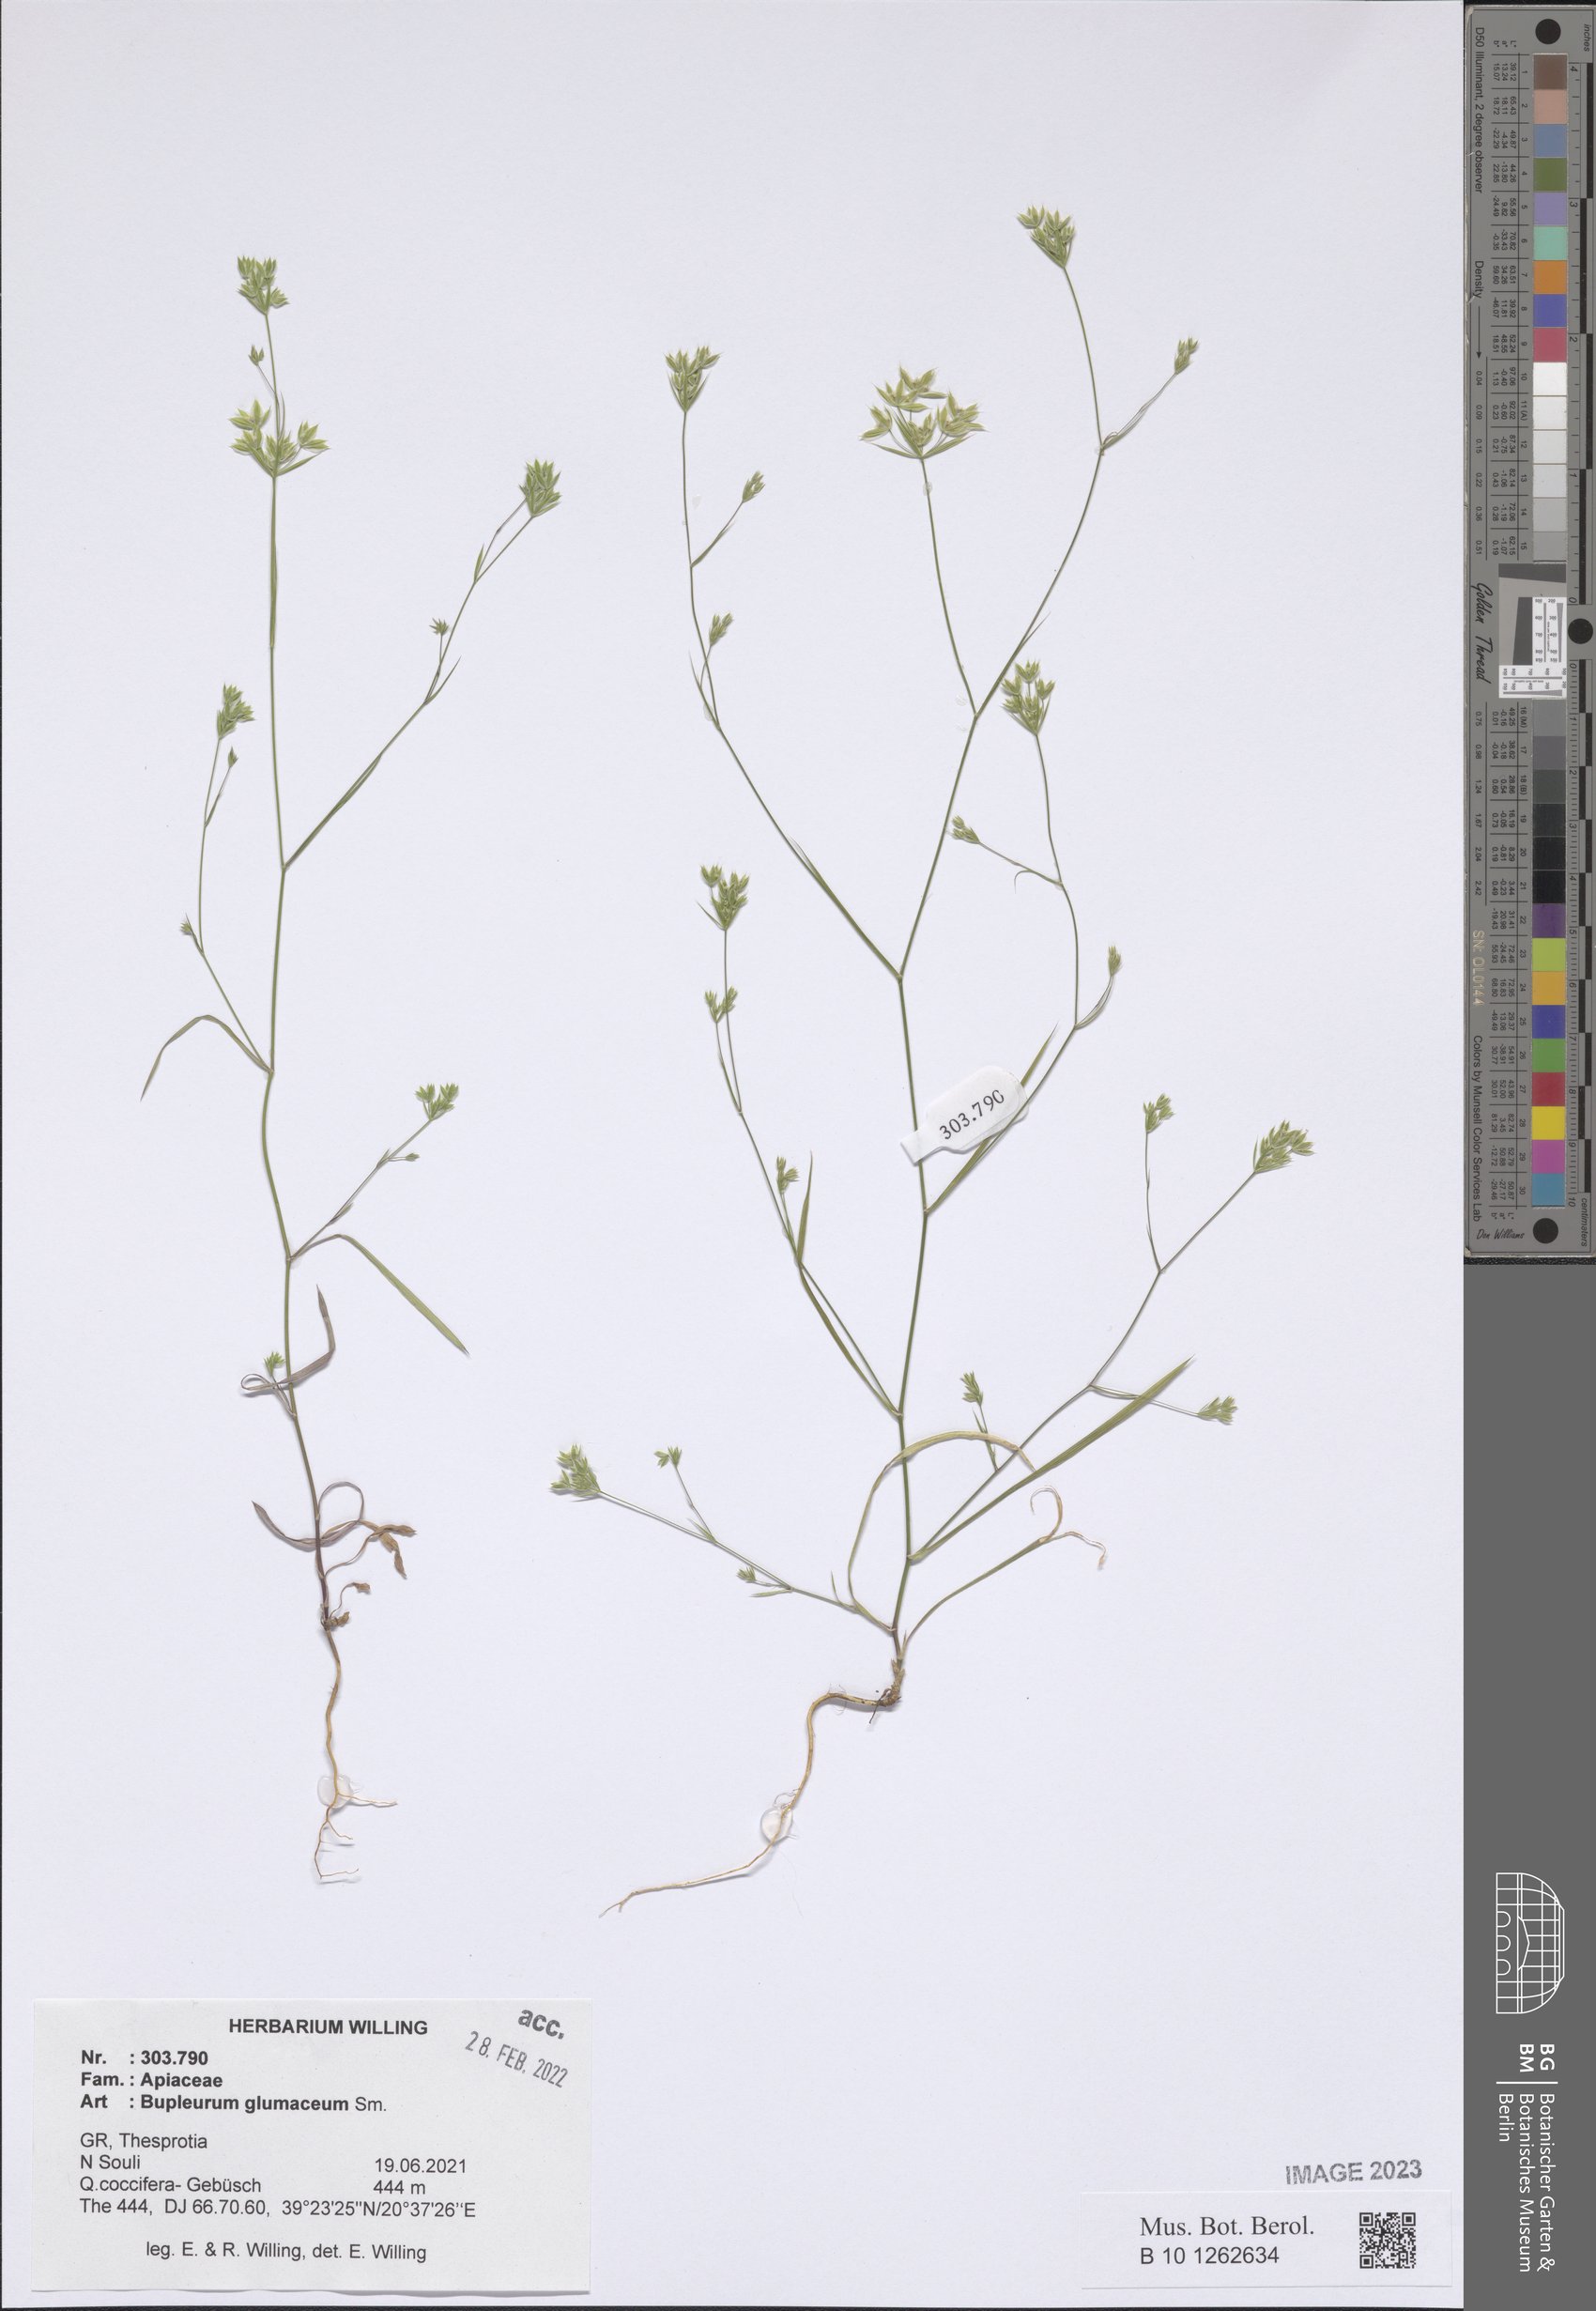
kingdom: Plantae
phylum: Tracheophyta
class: Magnoliopsida
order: Apiales
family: Apiaceae
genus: Bupleurum
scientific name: Bupleurum glumaceum
